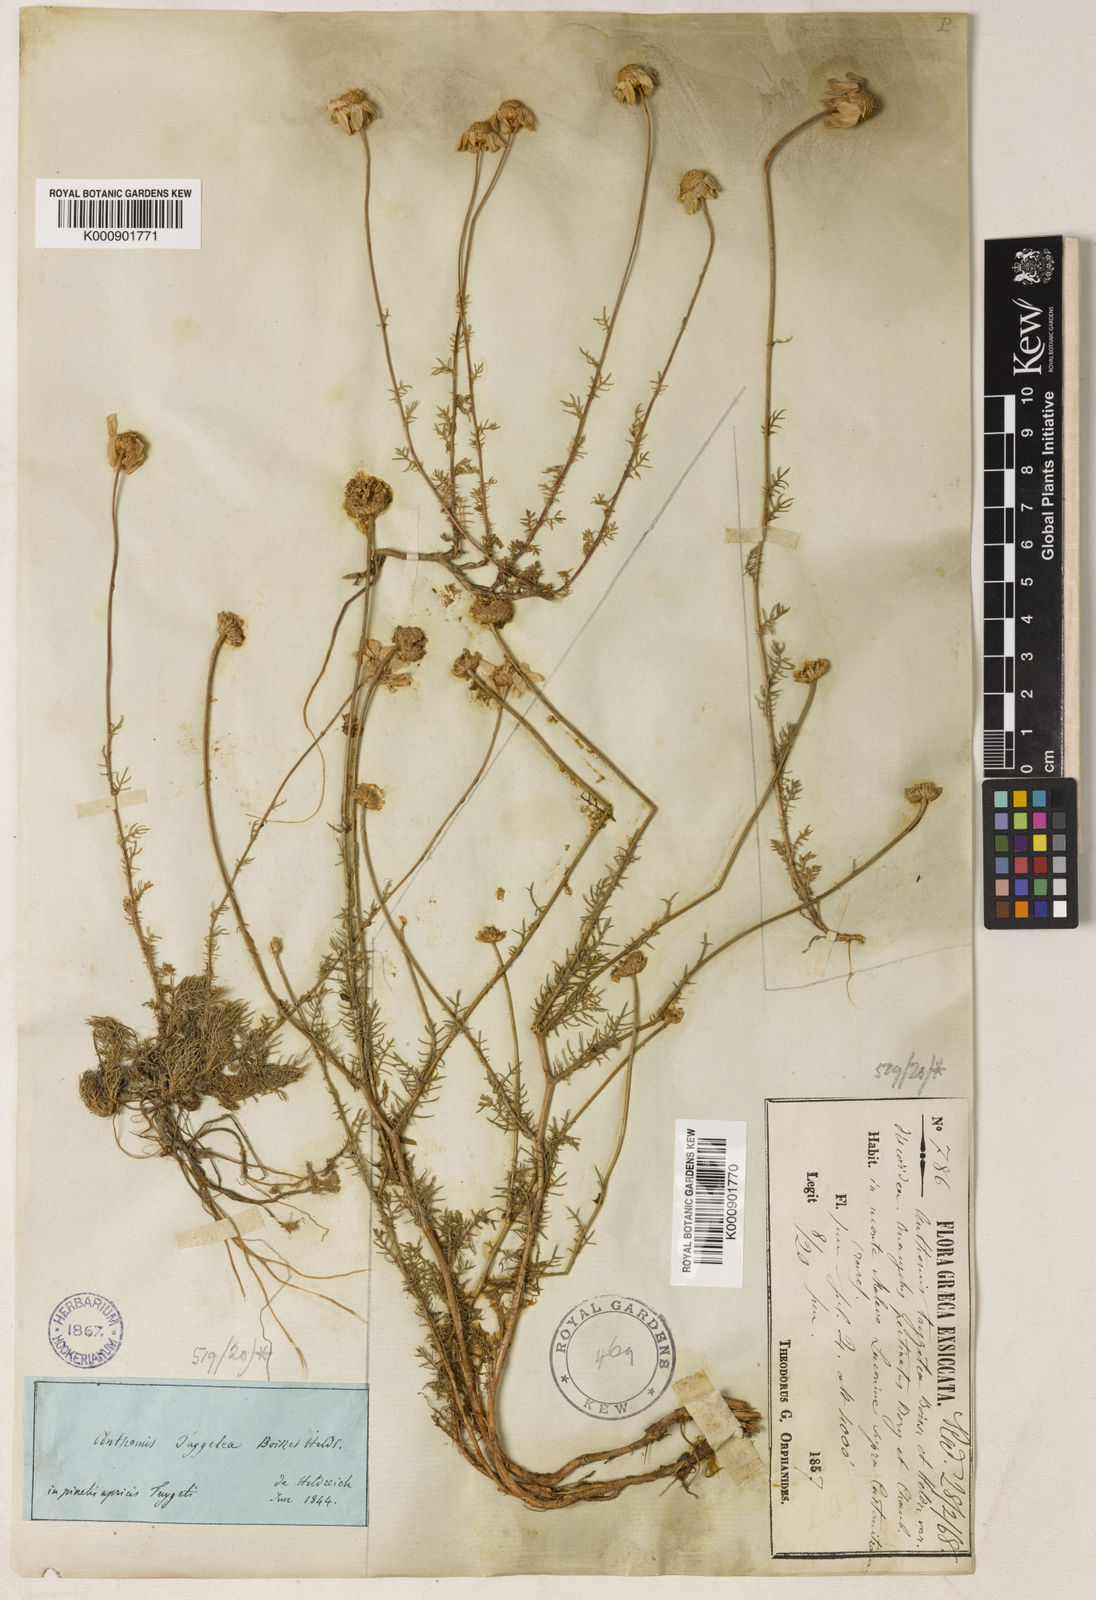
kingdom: Plantae
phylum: Tracheophyta
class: Magnoliopsida
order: Asterales
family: Asteraceae
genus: Anthemis
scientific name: Anthemis orientalis
